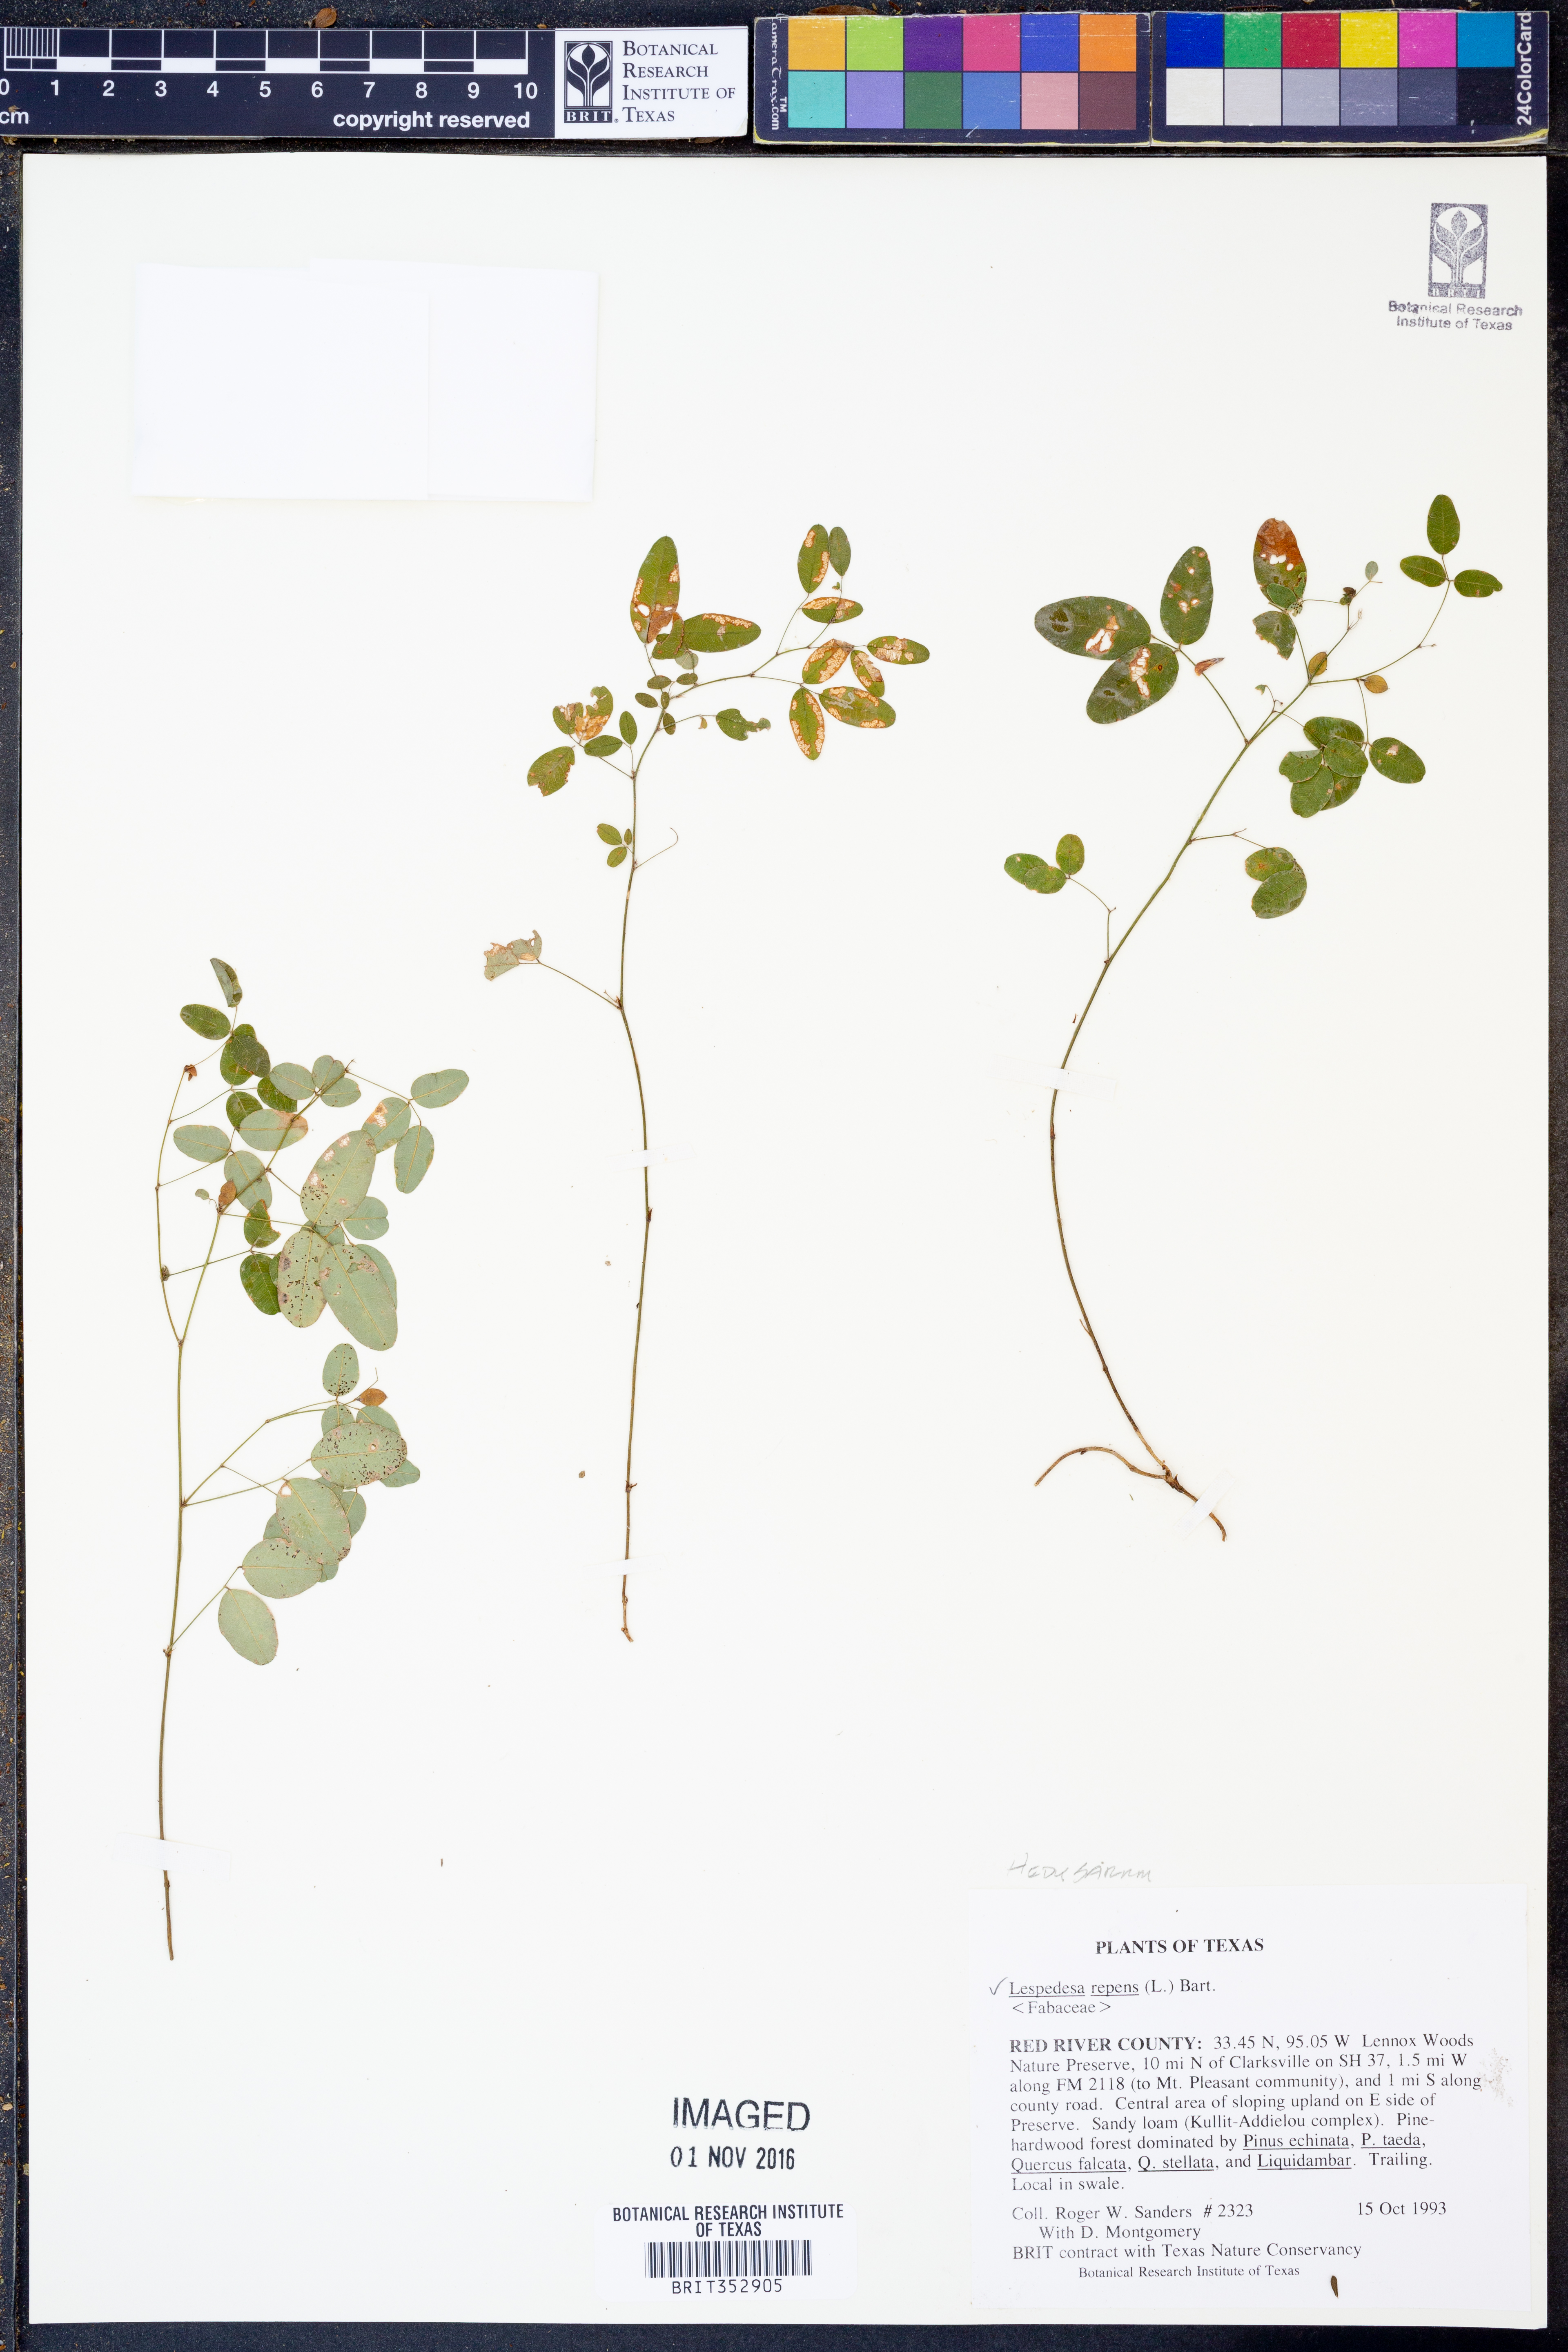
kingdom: Plantae
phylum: Tracheophyta
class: Magnoliopsida
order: Fabales
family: Fabaceae
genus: Lespedeza
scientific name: Lespedeza repens
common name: Creeping bush-clover
